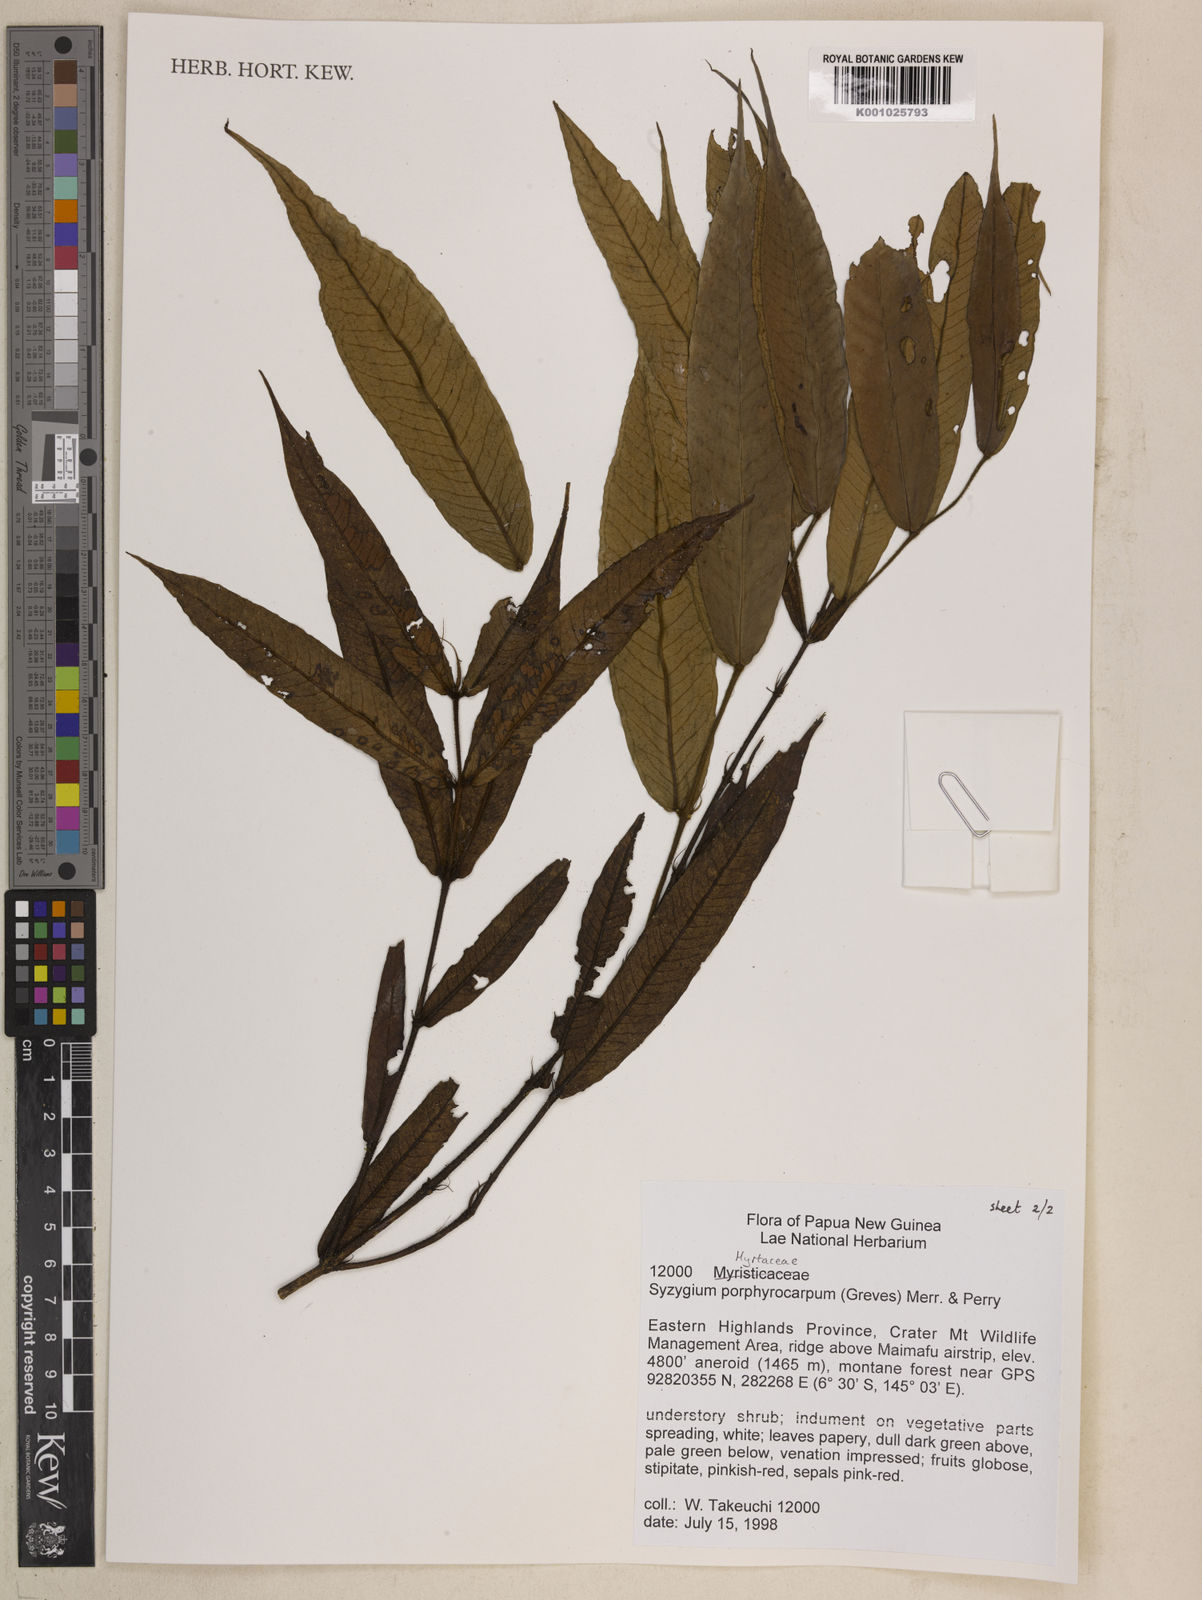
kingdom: Plantae
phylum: Tracheophyta
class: Magnoliopsida
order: Myrtales
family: Myrtaceae
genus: Syzygium
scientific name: Syzygium porphyrocarpum
